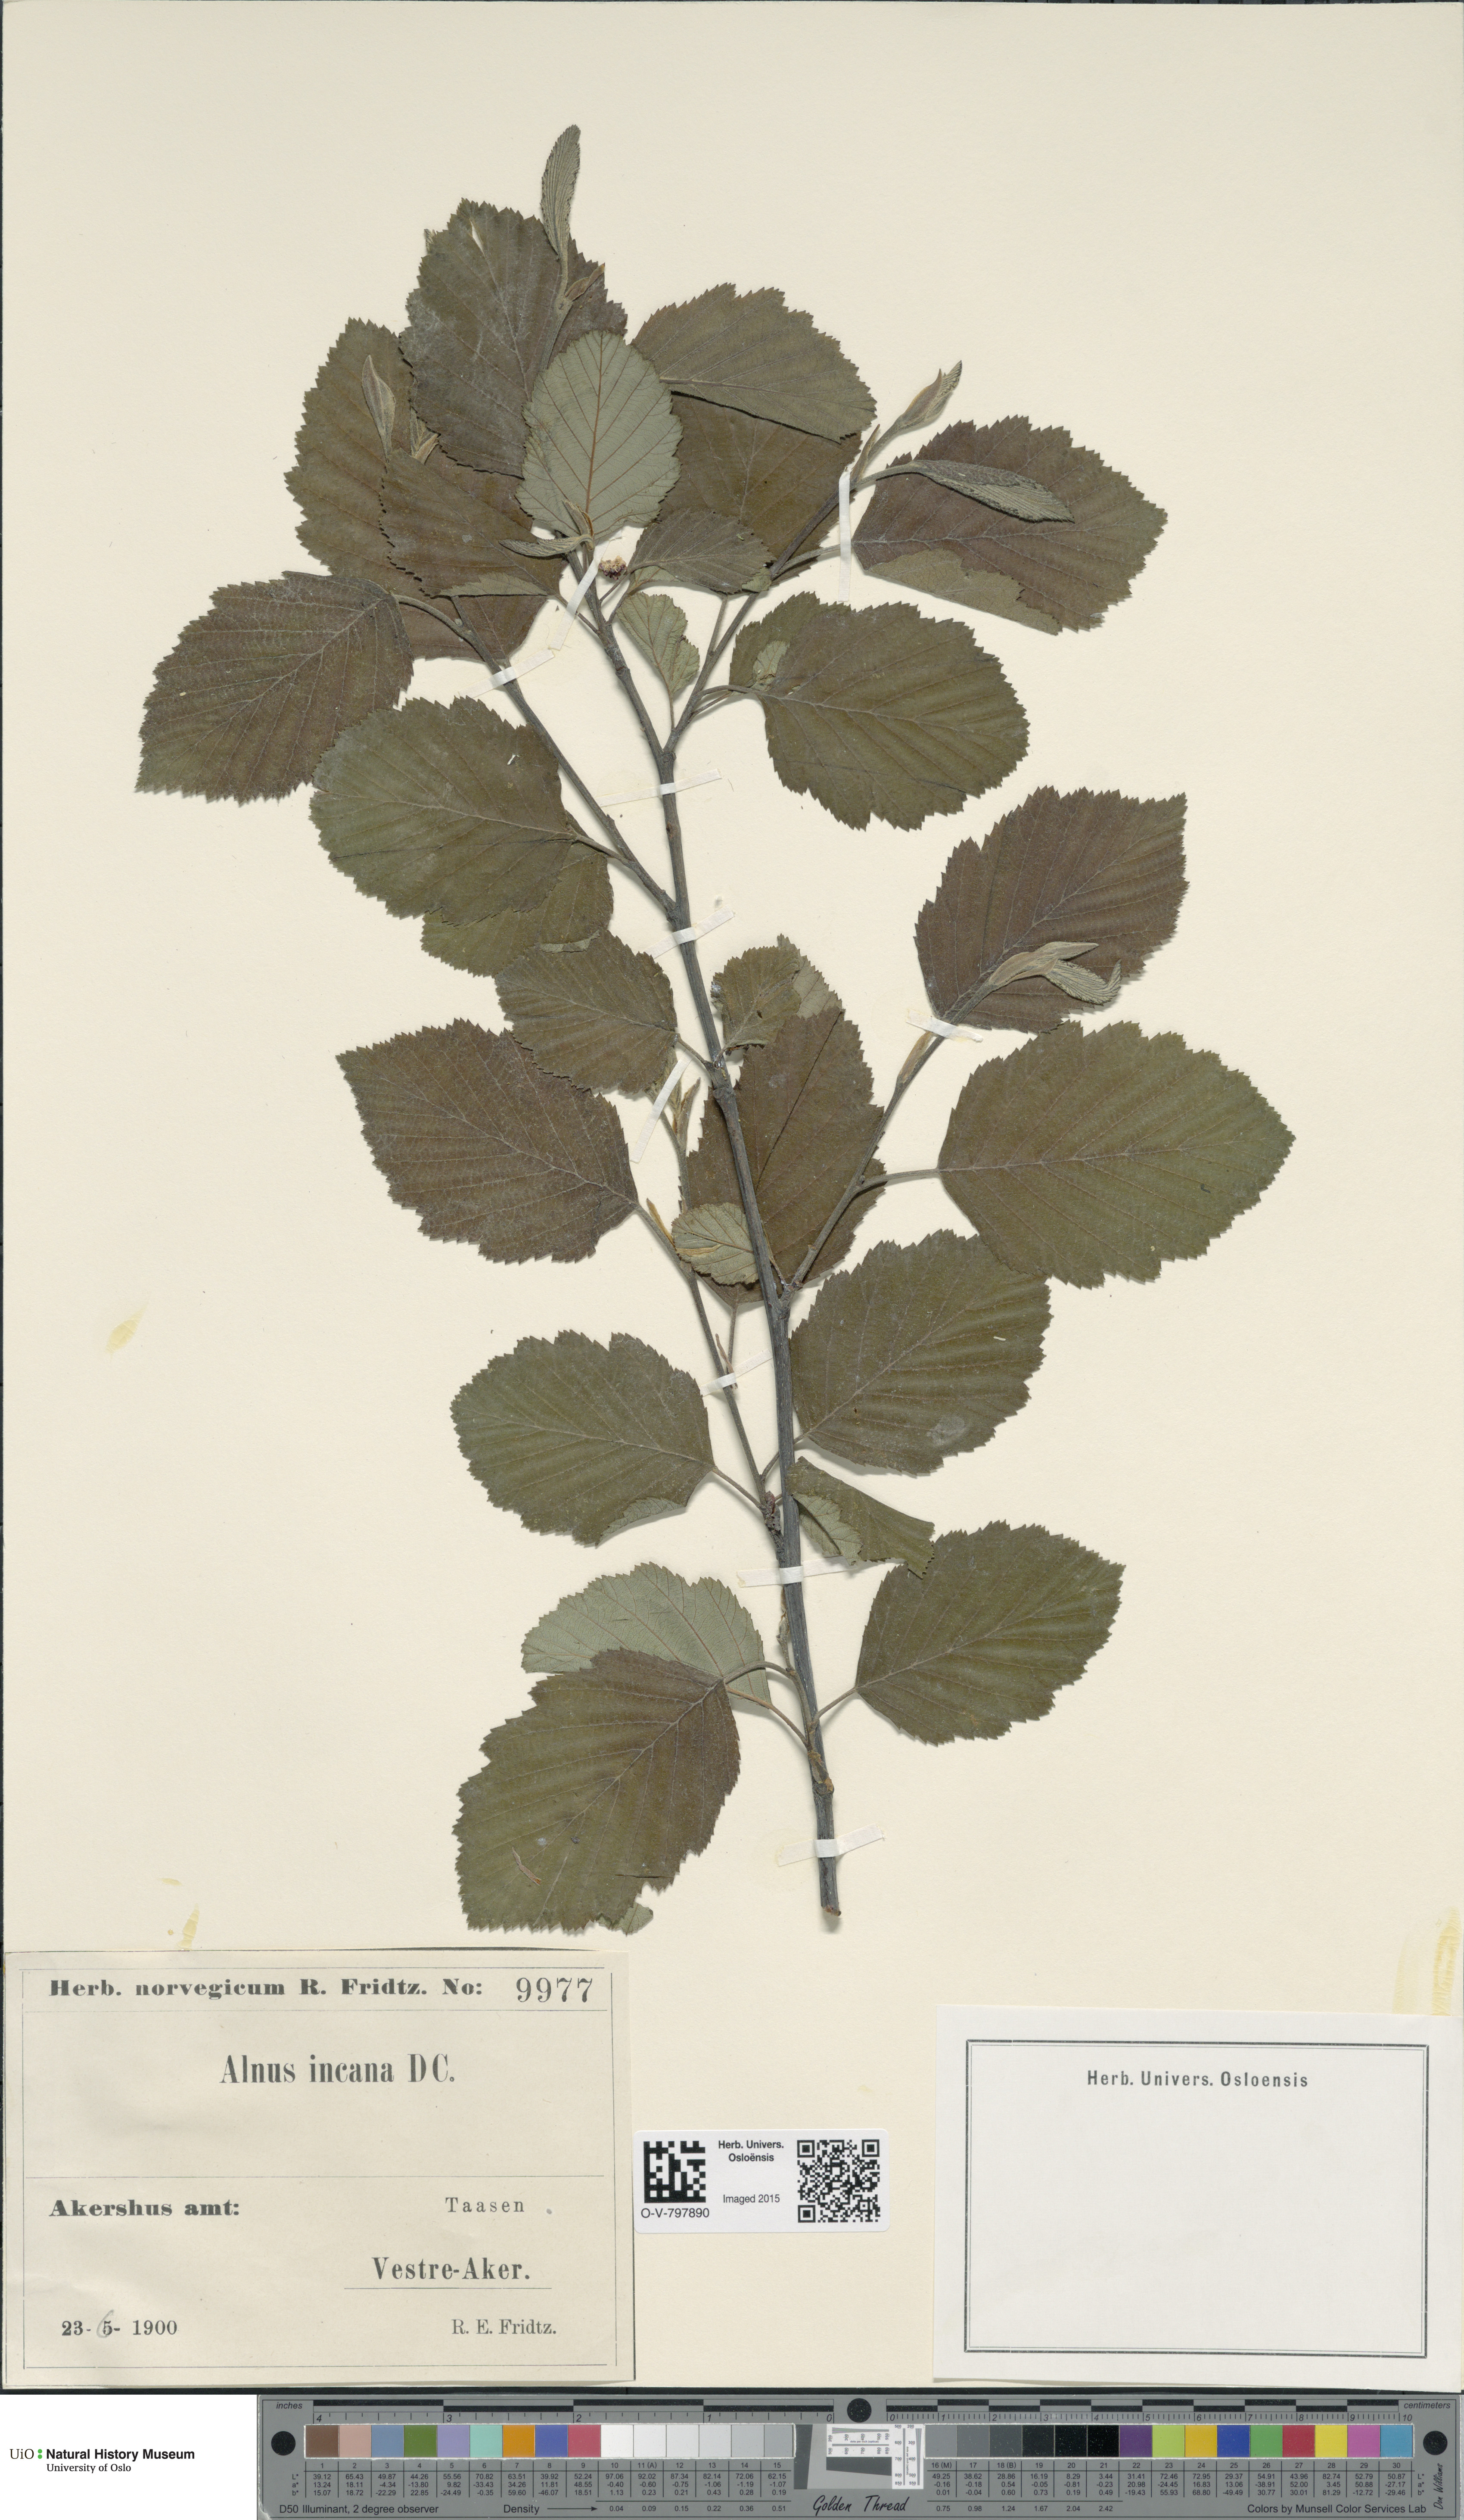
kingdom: Plantae
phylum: Tracheophyta
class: Magnoliopsida
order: Fagales
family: Betulaceae
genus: Alnus
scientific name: Alnus incana
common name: Grey alder
